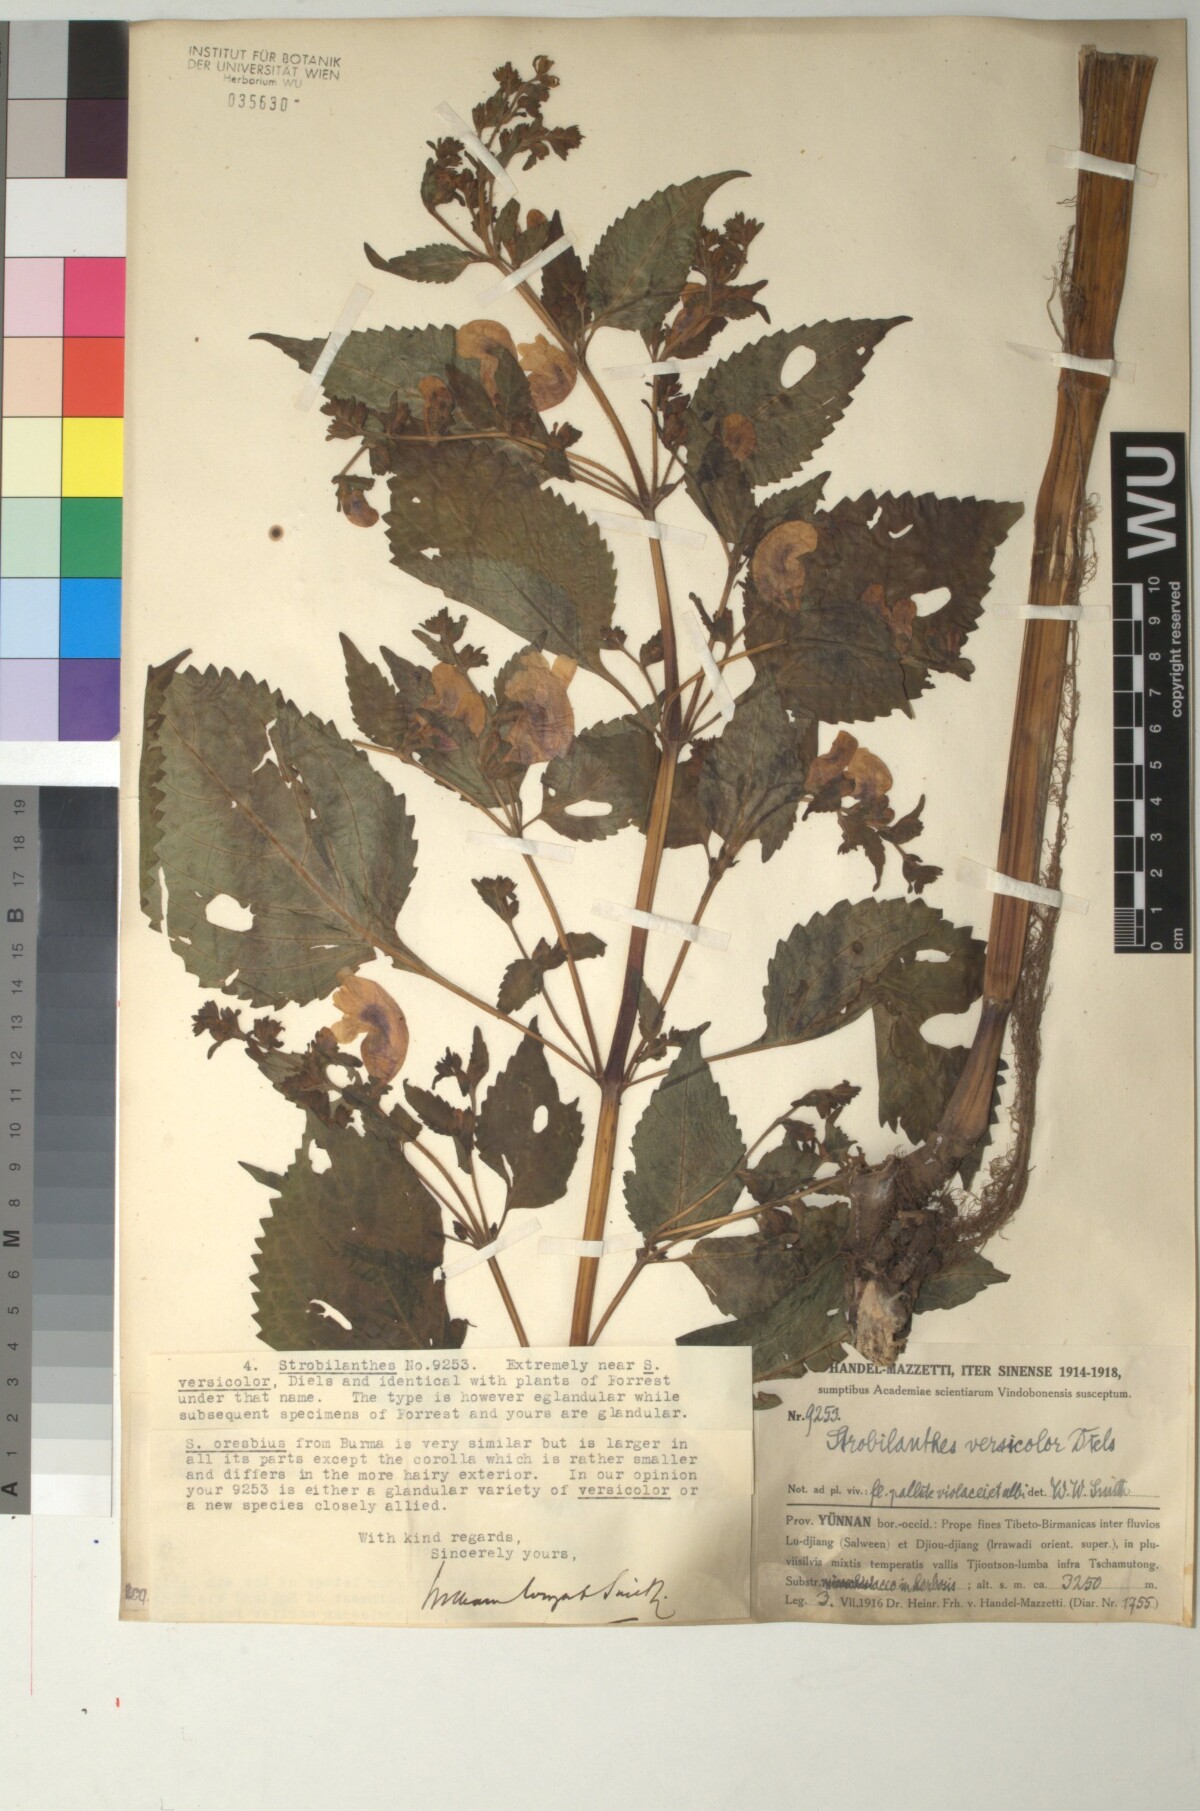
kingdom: Plantae
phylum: Tracheophyta
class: Magnoliopsida
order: Lamiales
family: Acanthaceae
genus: Strobilanthes
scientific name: Strobilanthes versicolor
